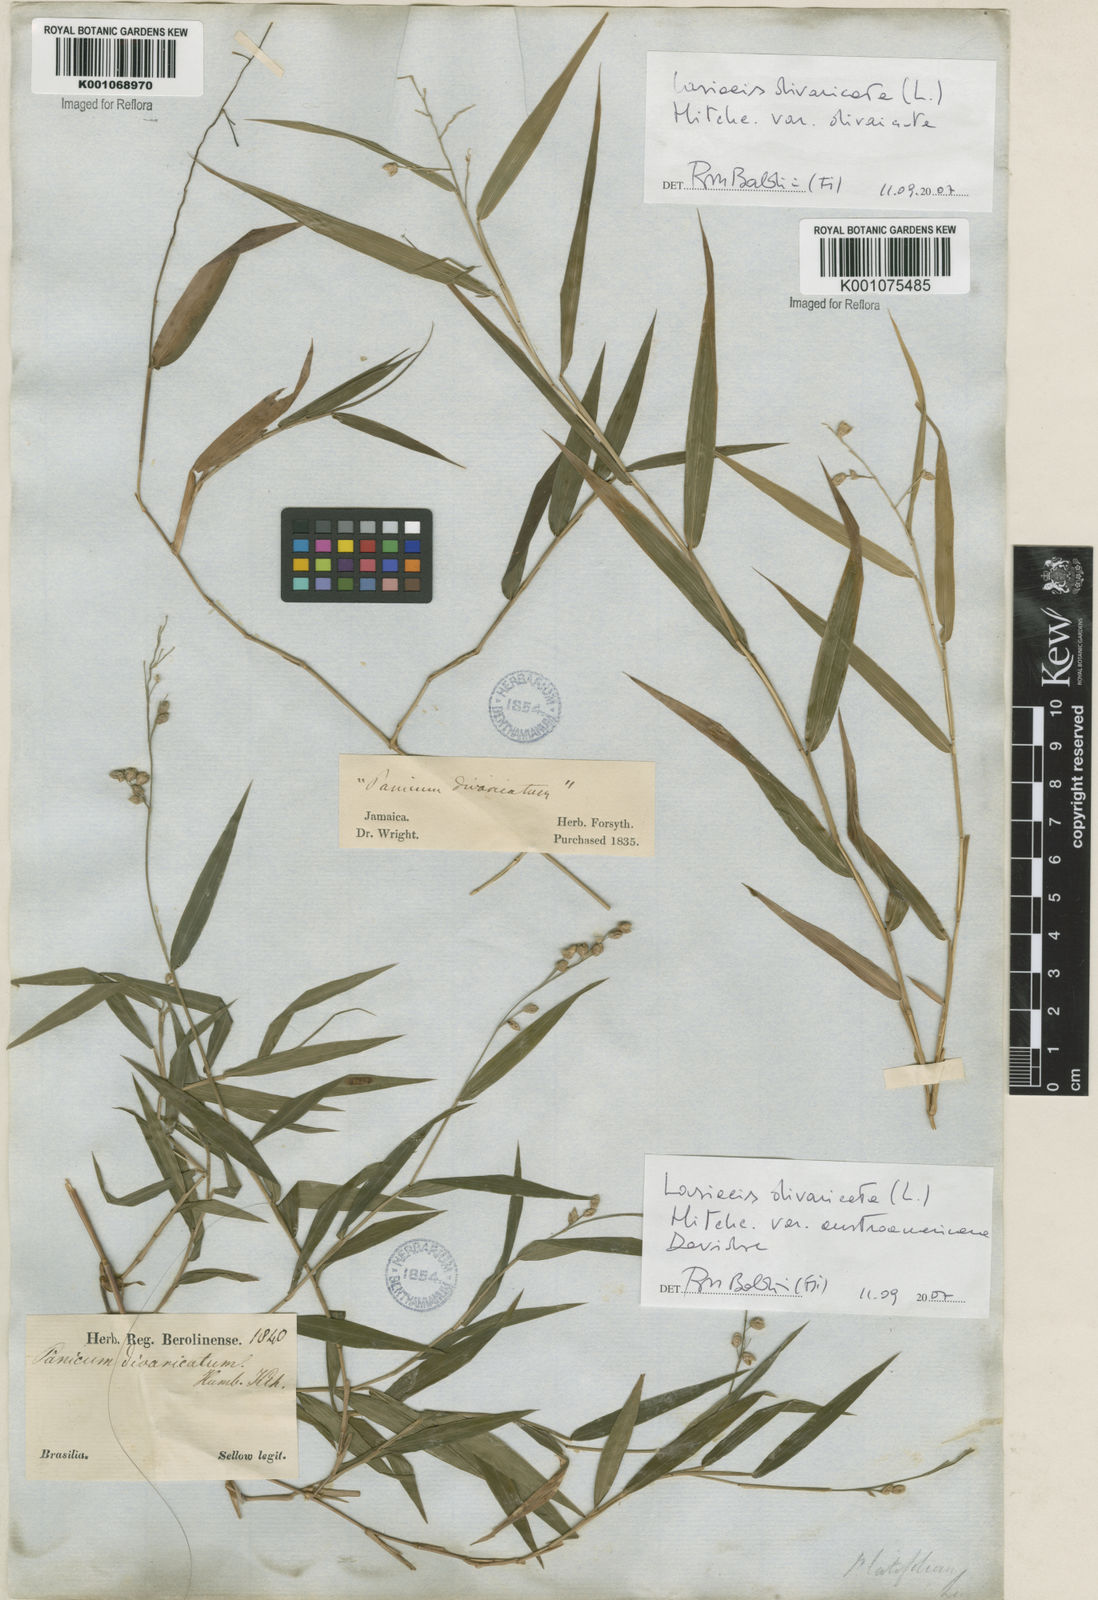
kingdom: Plantae
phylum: Tracheophyta
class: Liliopsida
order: Poales
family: Poaceae
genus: Lasiacis
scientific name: Lasiacis divaricata
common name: Smallcane
